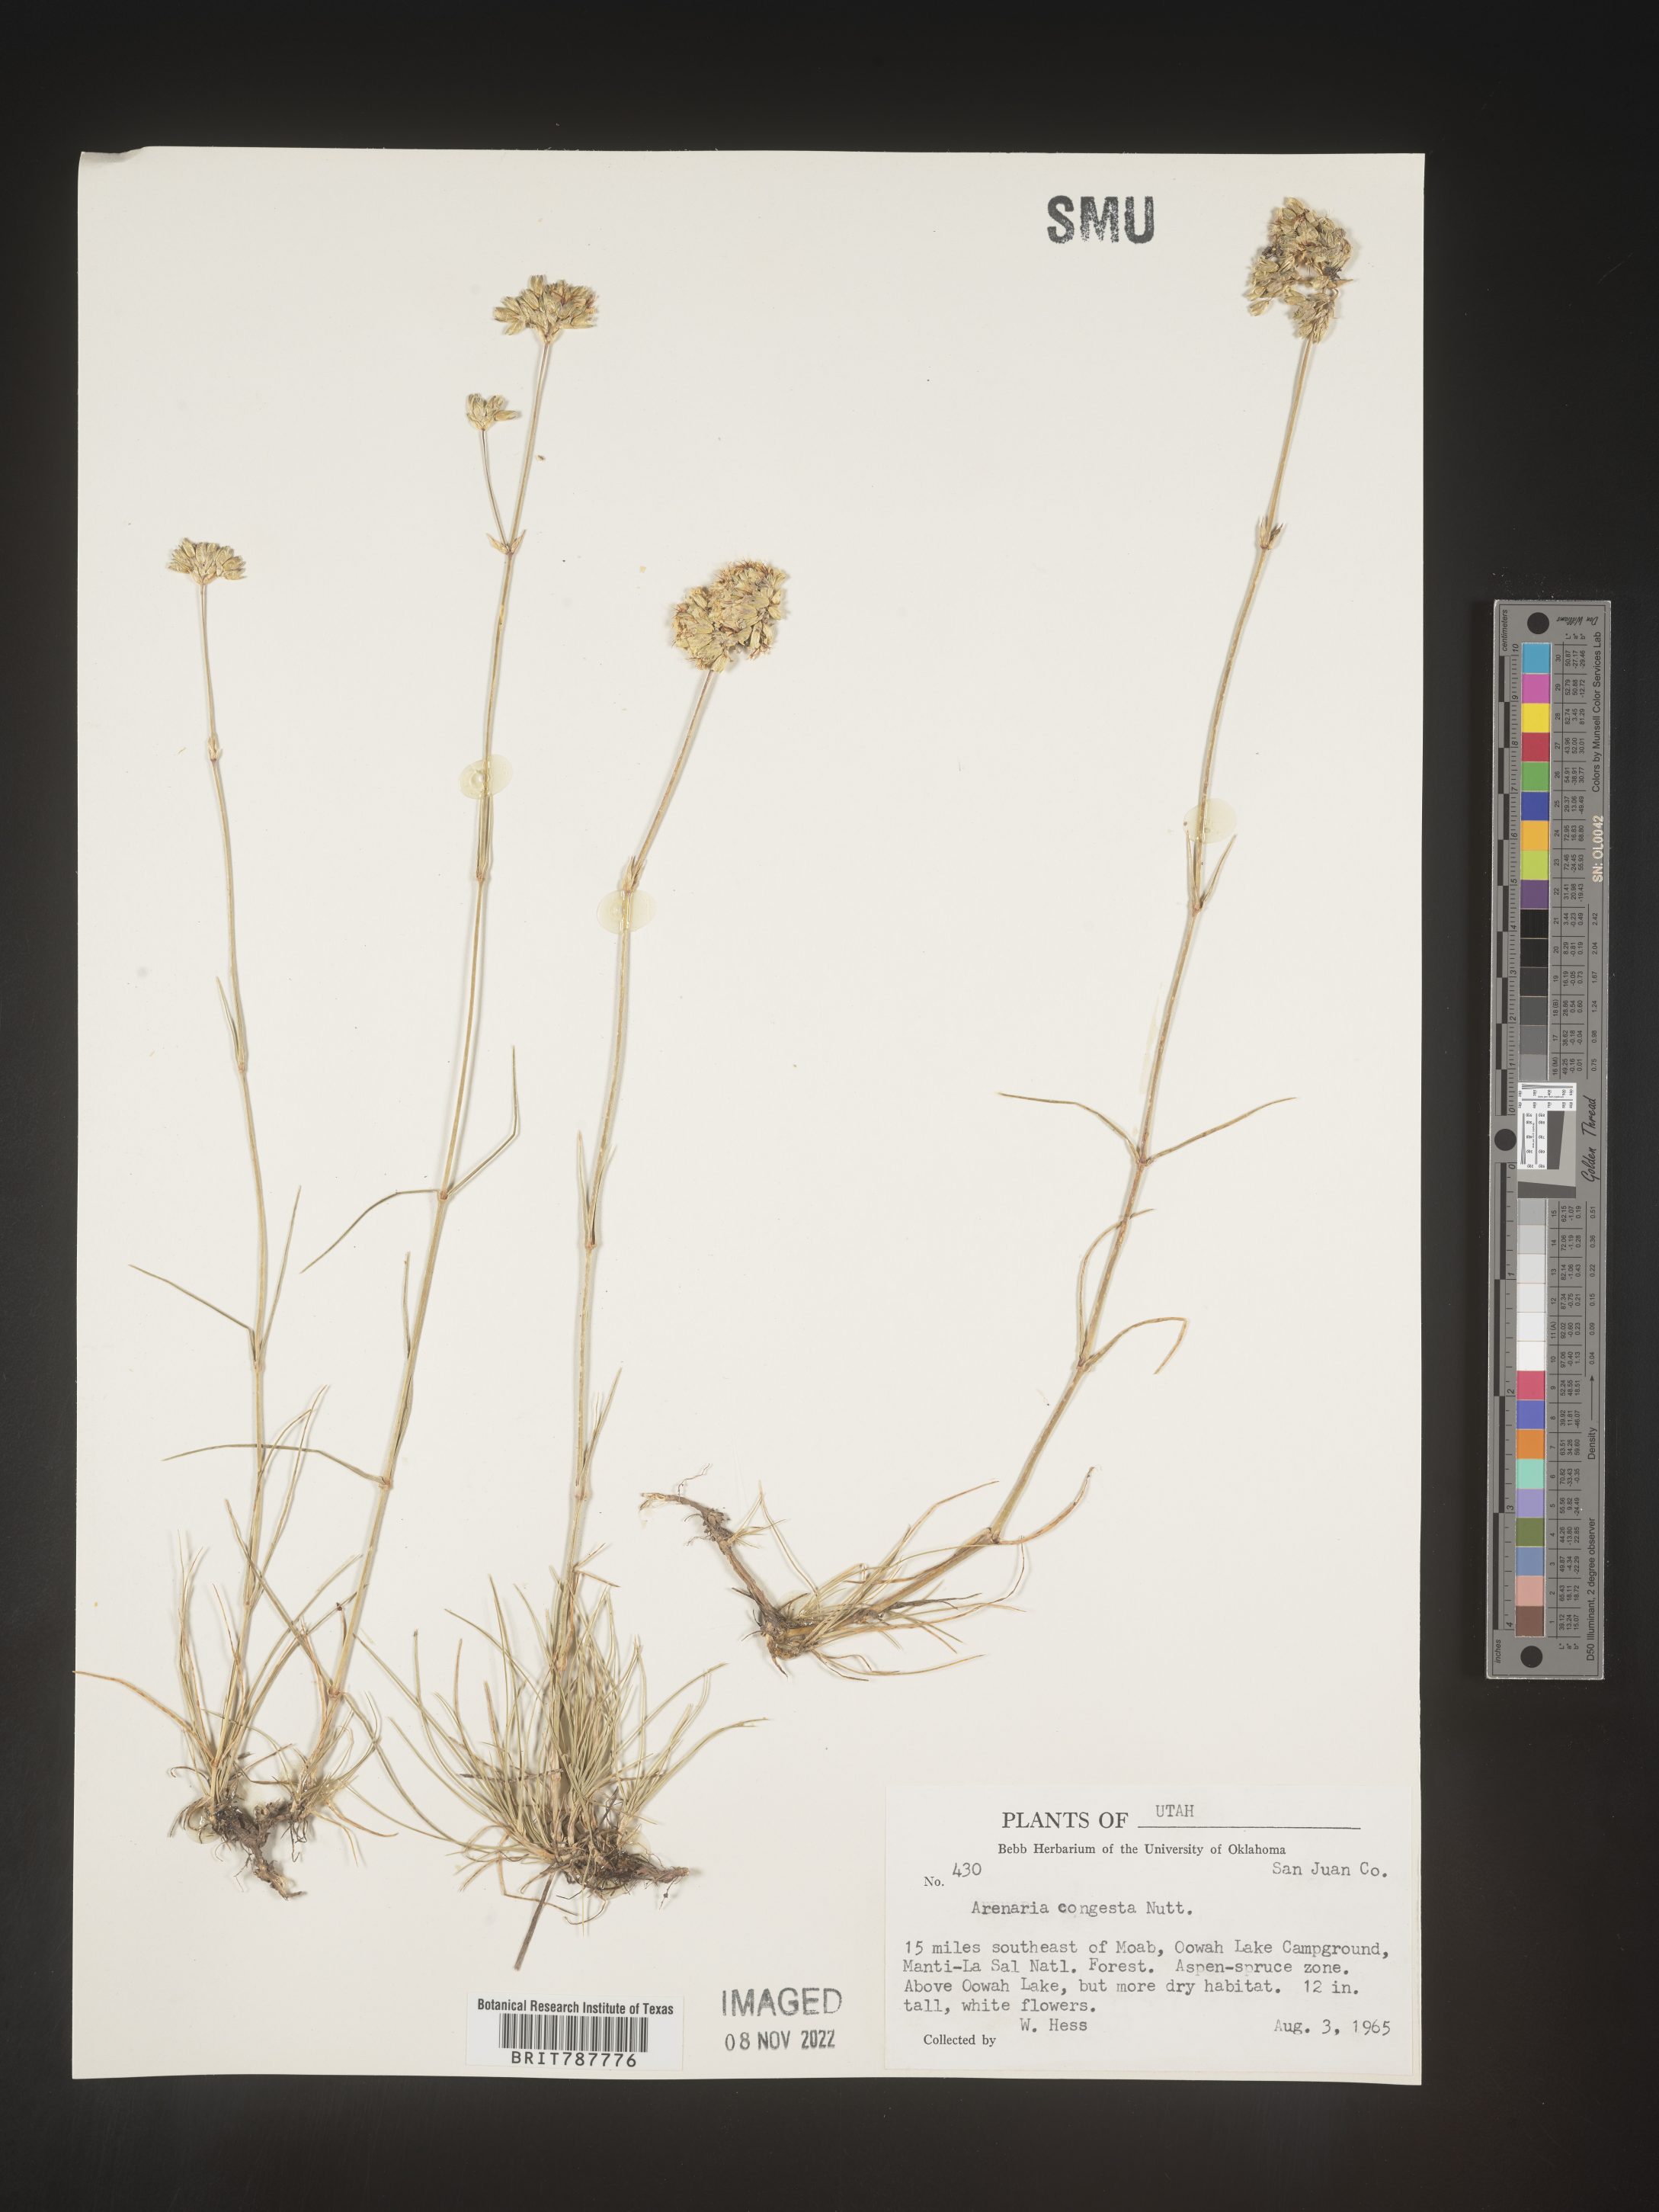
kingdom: Plantae
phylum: Tracheophyta
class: Magnoliopsida
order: Caryophyllales
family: Caryophyllaceae
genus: Eremogone
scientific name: Eremogone congesta
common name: Ballhead sandwort
